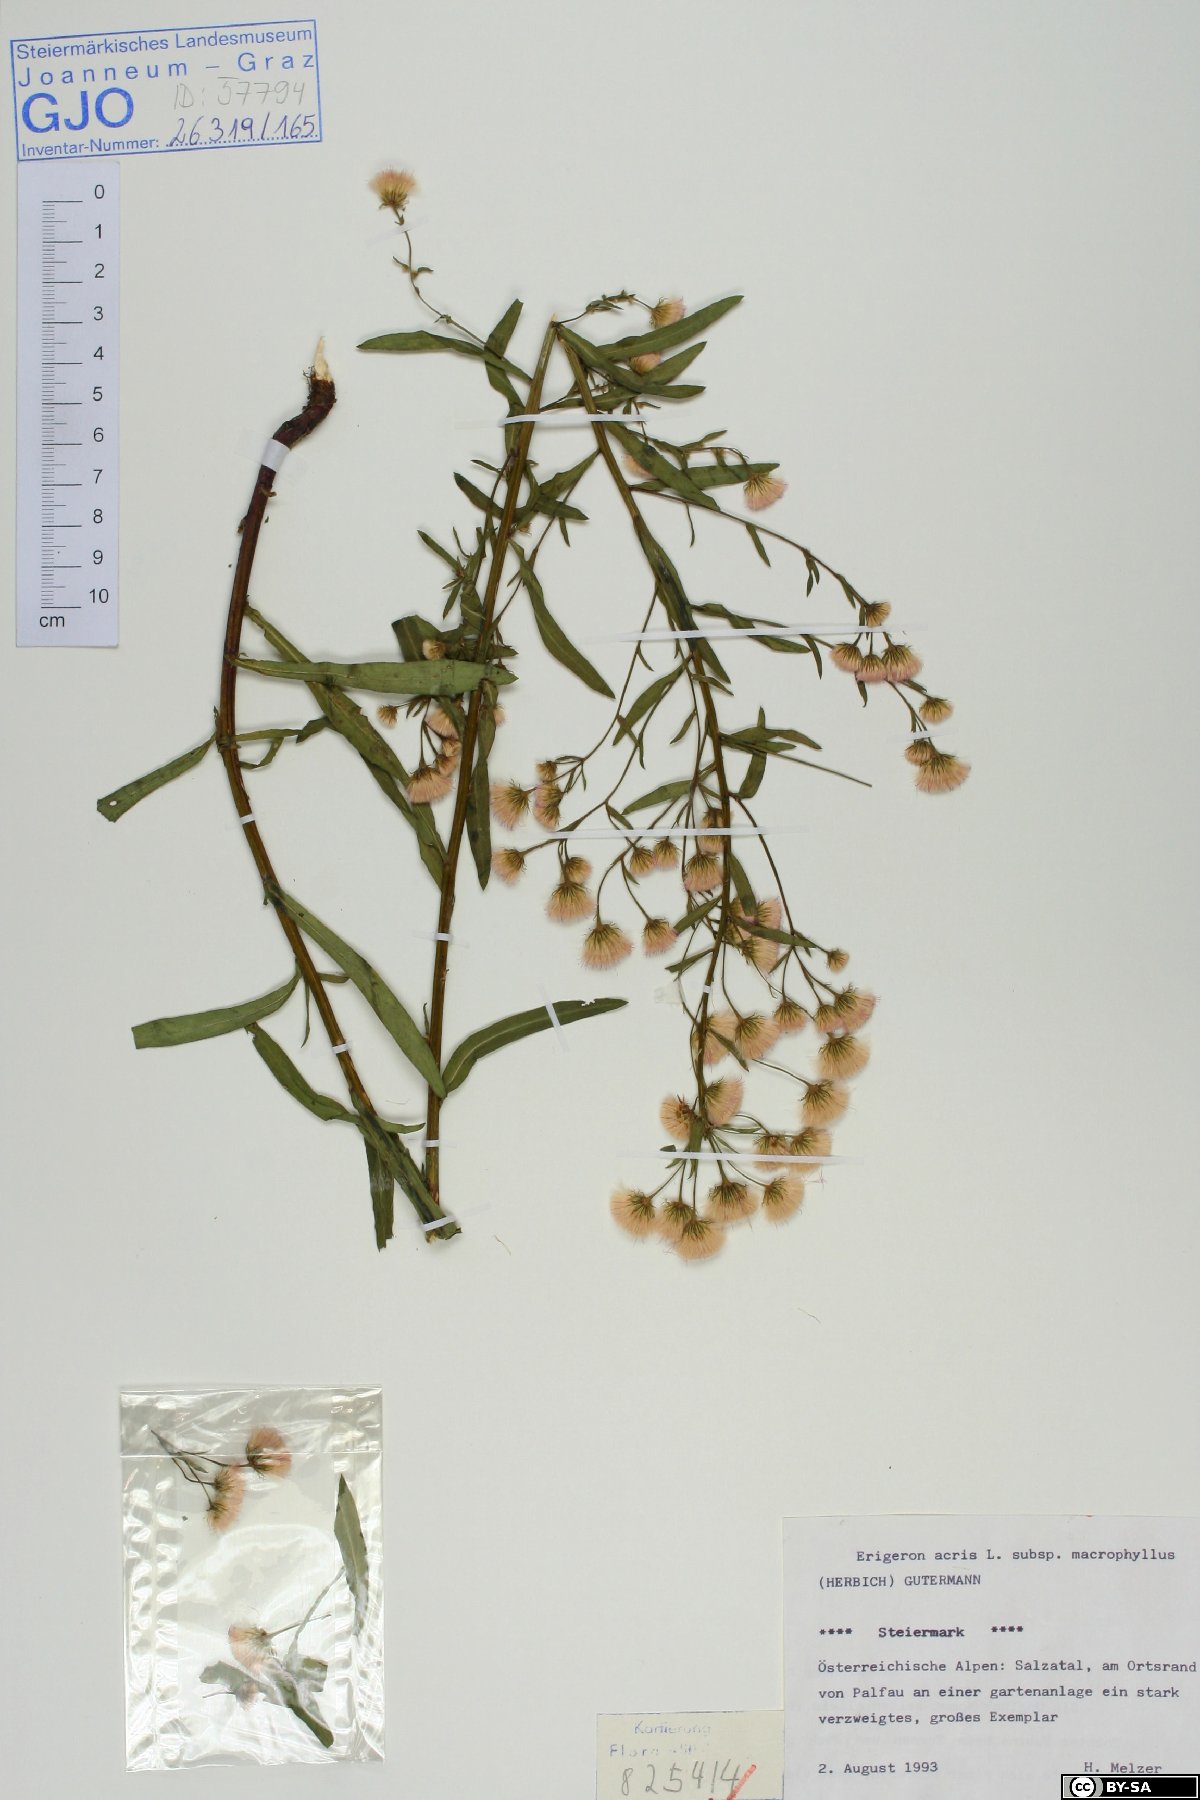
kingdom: Plantae
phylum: Tracheophyta
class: Magnoliopsida
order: Asterales
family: Asteraceae
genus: Erigeron
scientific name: Erigeron macrophyllus
